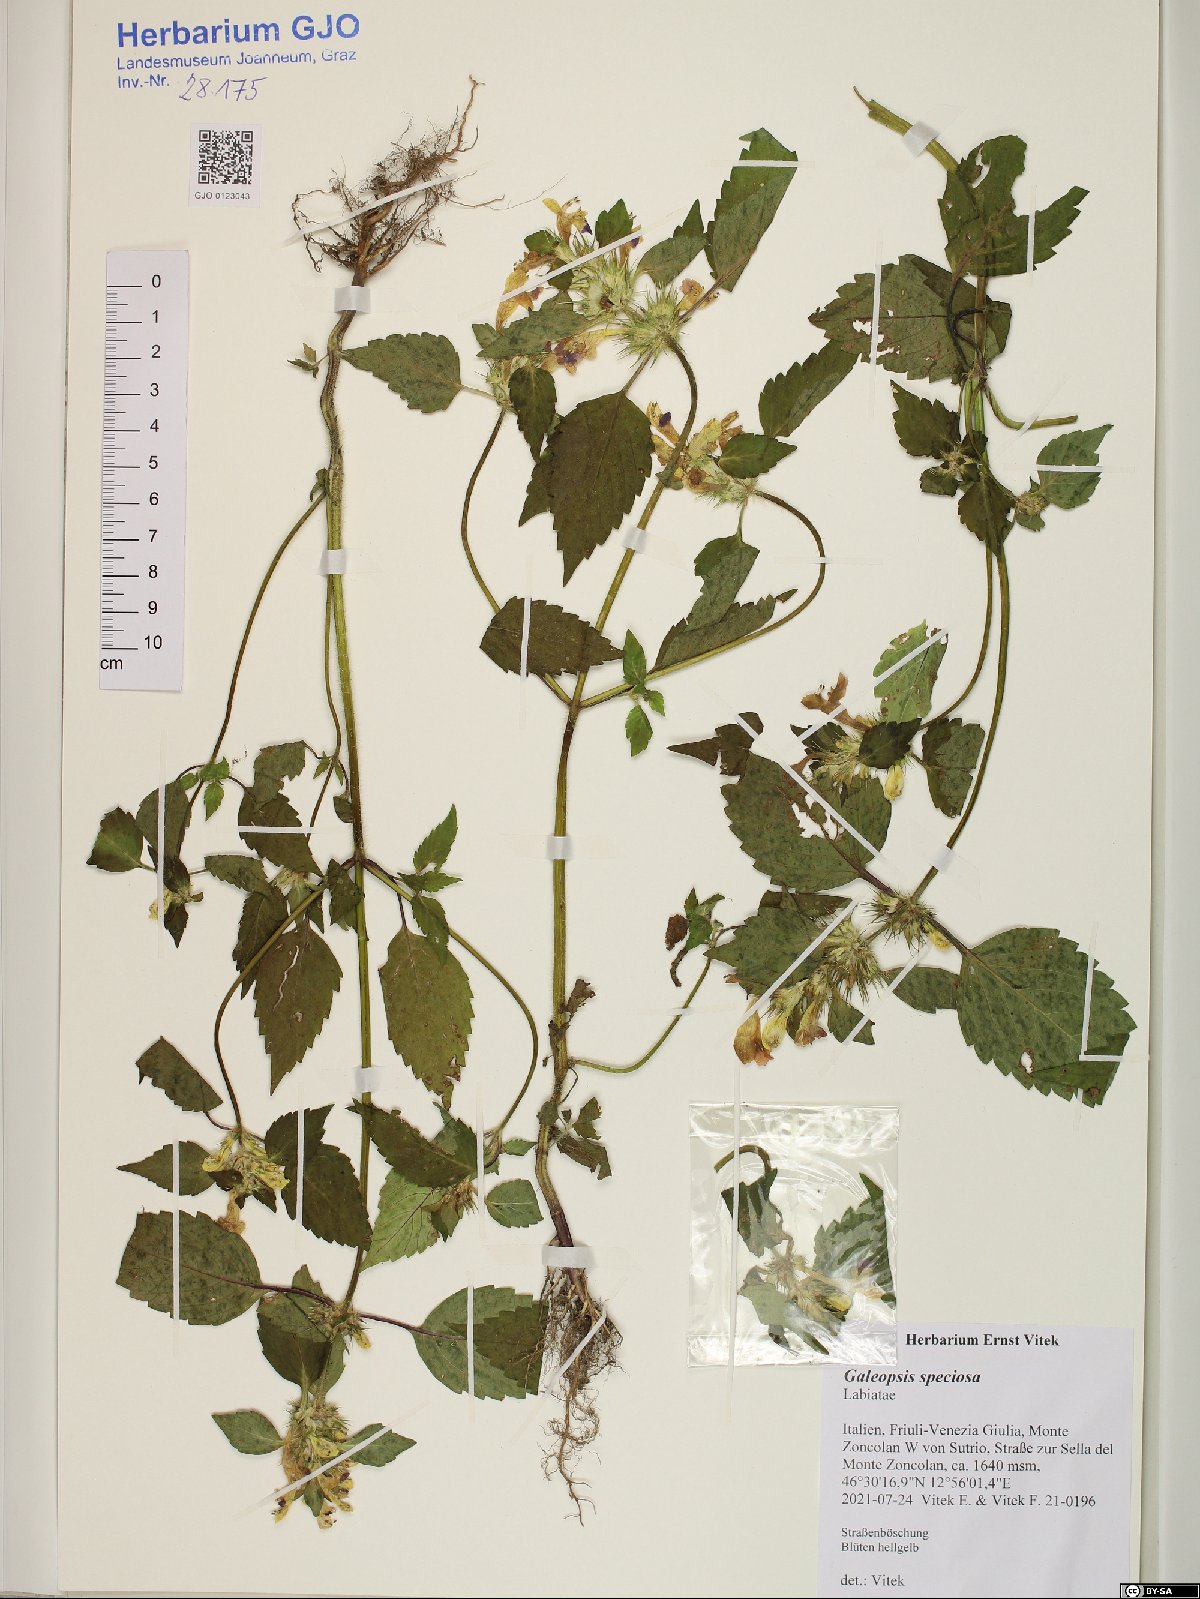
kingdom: Plantae
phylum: Tracheophyta
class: Magnoliopsida
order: Lamiales
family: Lamiaceae
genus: Galeopsis
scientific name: Galeopsis speciosa
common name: Large-flowered hemp-nettle
